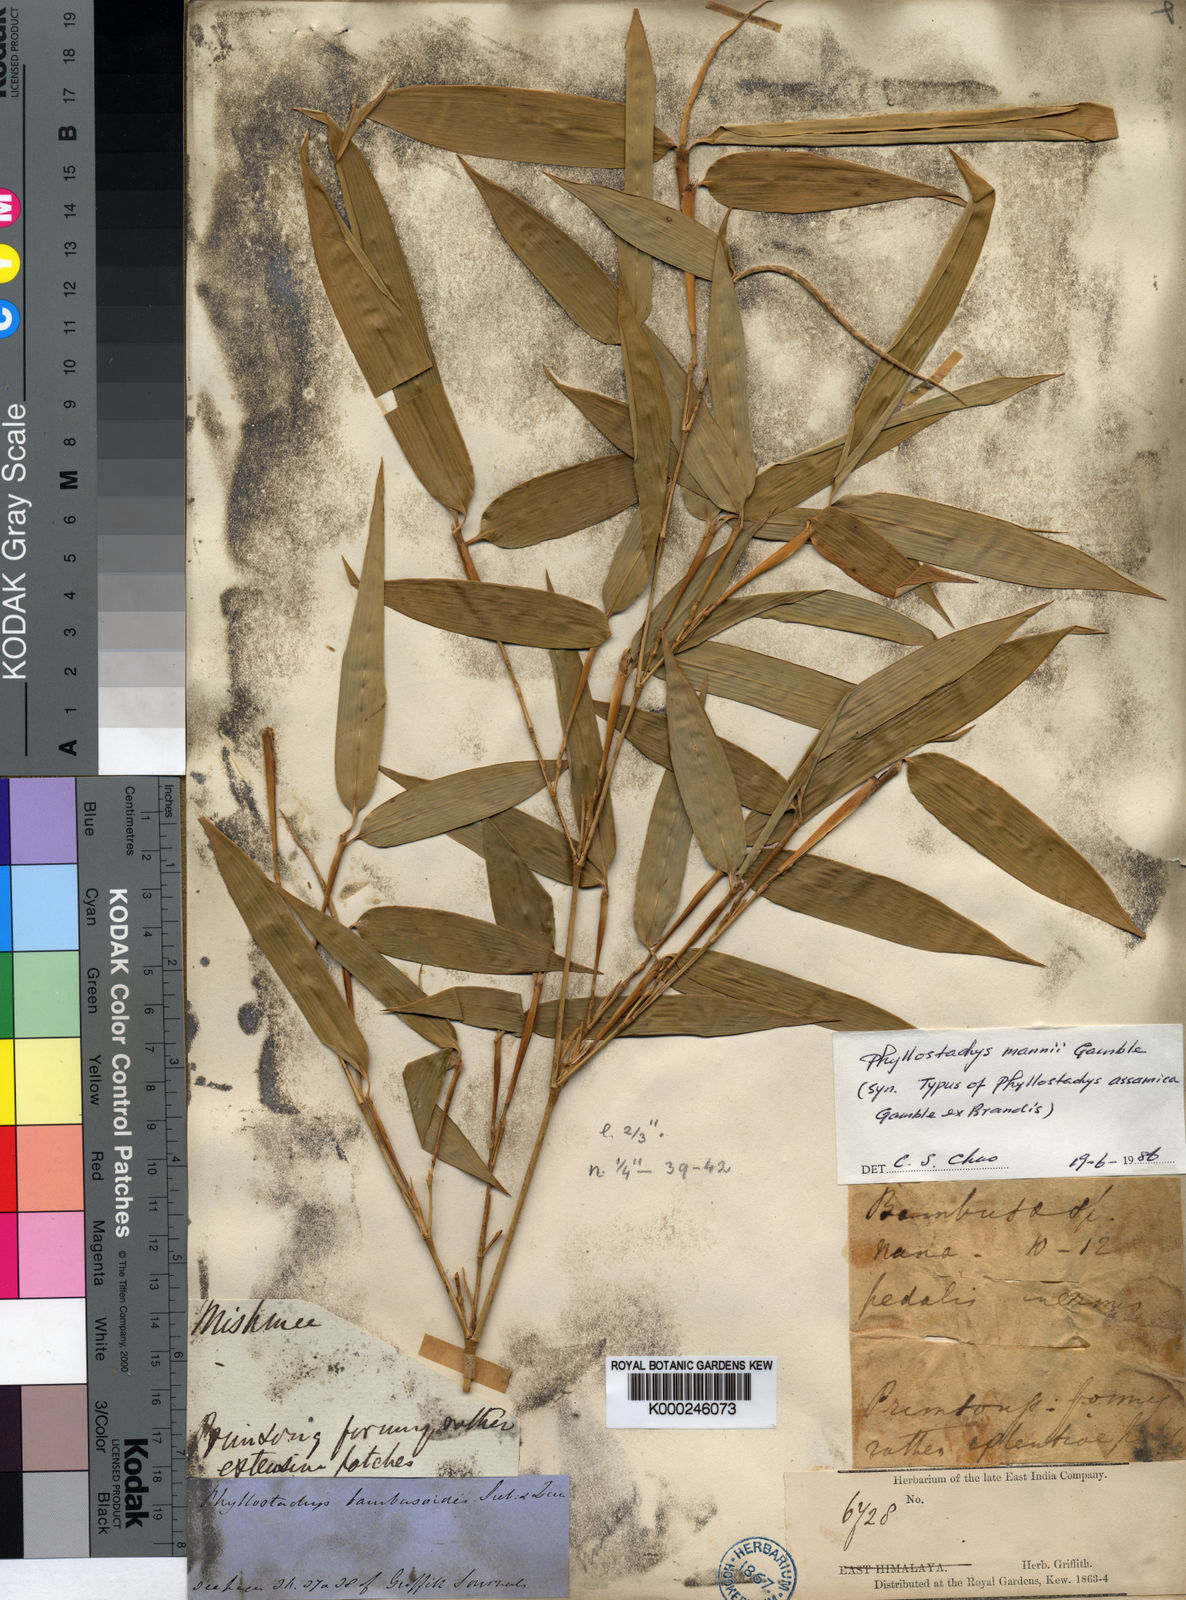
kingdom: Plantae
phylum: Tracheophyta
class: Liliopsida
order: Poales
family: Poaceae
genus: Phyllostachys
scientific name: Phyllostachys mannii
